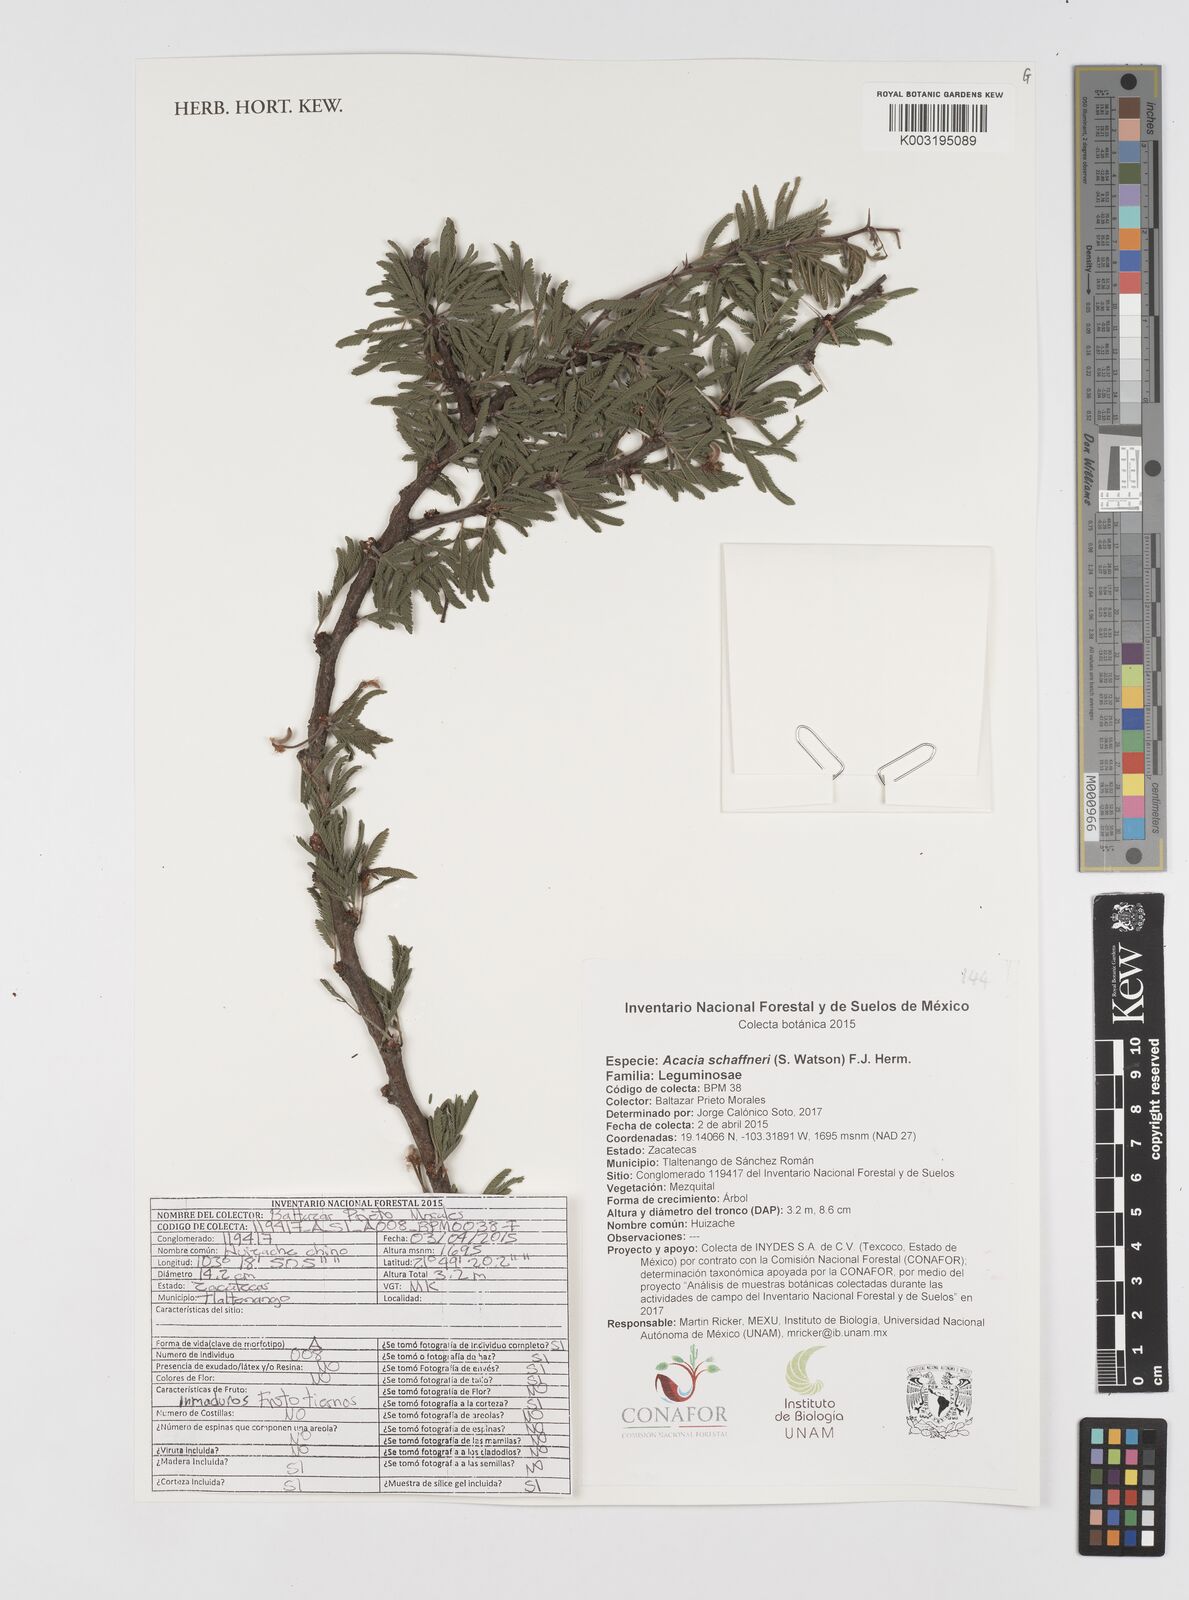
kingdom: Plantae
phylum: Tracheophyta
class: Magnoliopsida
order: Fabales
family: Fabaceae
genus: Vachellia
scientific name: Vachellia schaffneri
